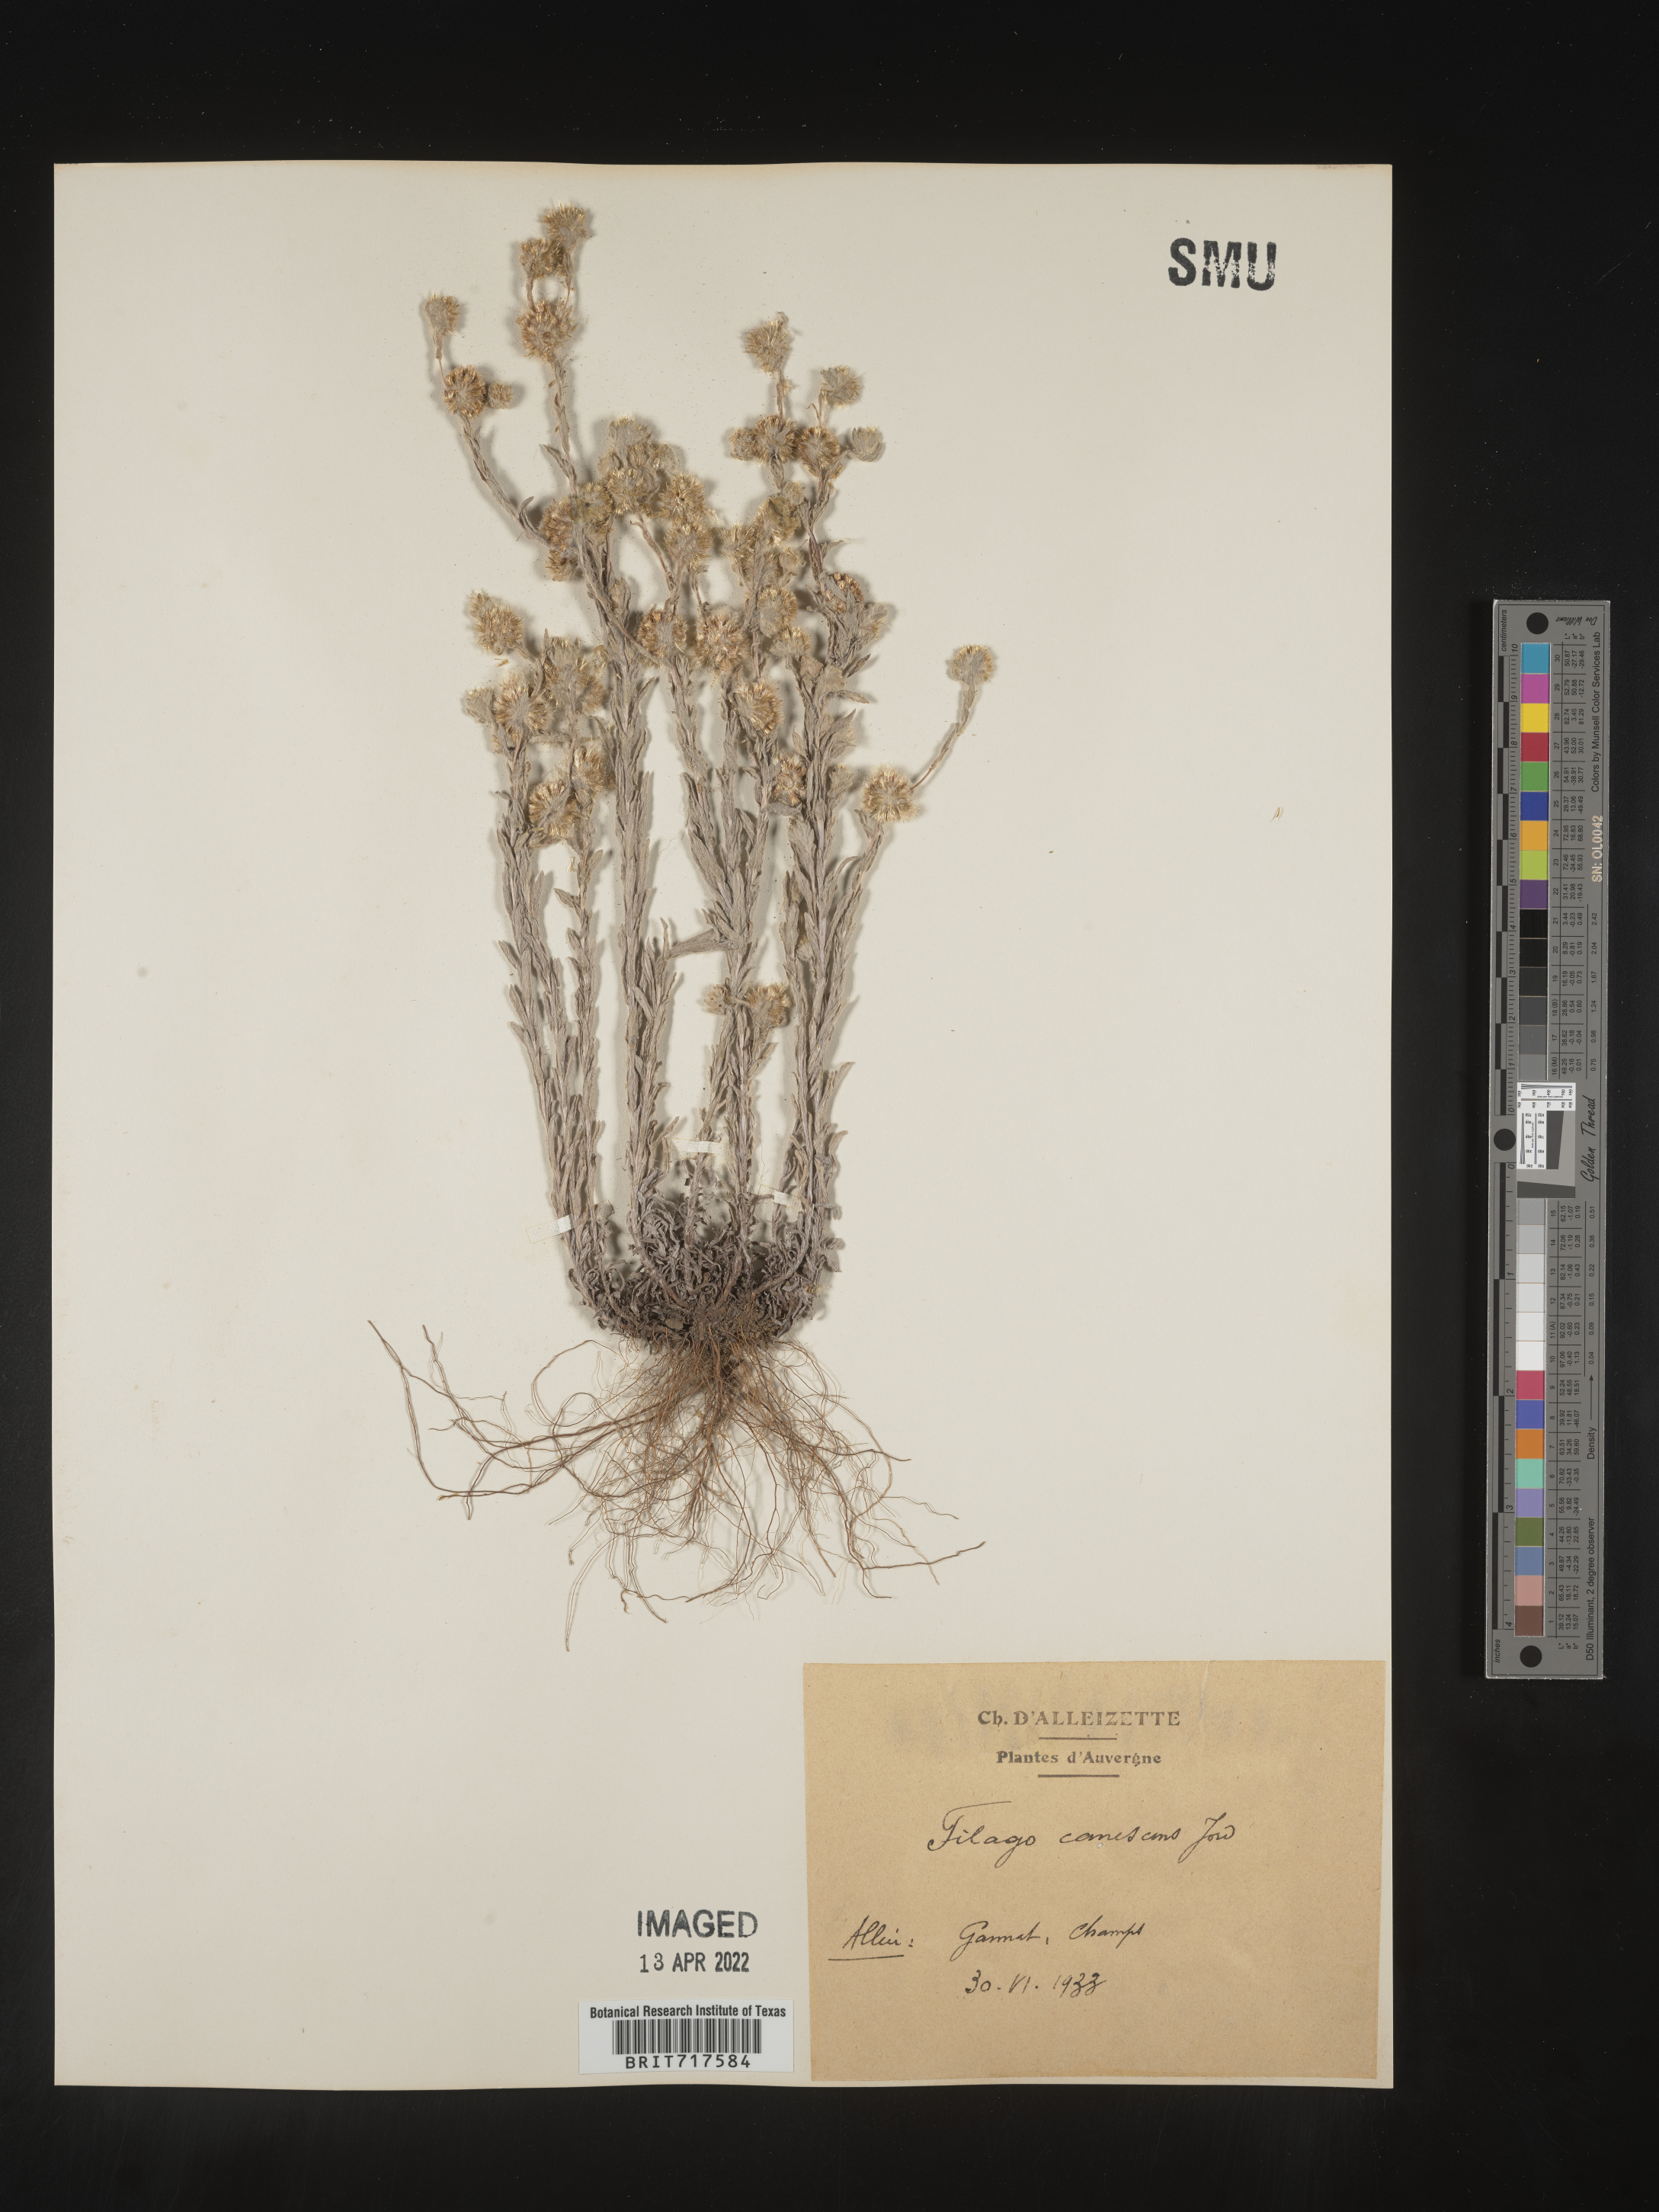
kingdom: Plantae
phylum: Tracheophyta
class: Magnoliopsida
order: Asterales
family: Asteraceae
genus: Filago
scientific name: Filago
